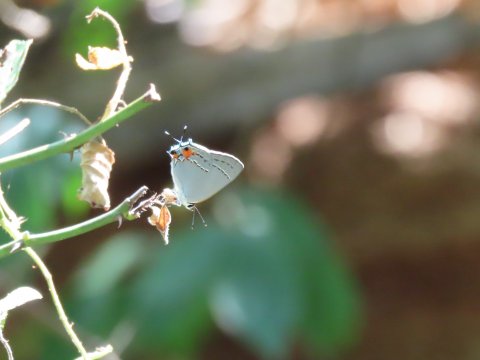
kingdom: Animalia
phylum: Arthropoda
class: Insecta
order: Lepidoptera
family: Lycaenidae
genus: Strymon
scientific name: Strymon melinus
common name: Gray Hairstreak
